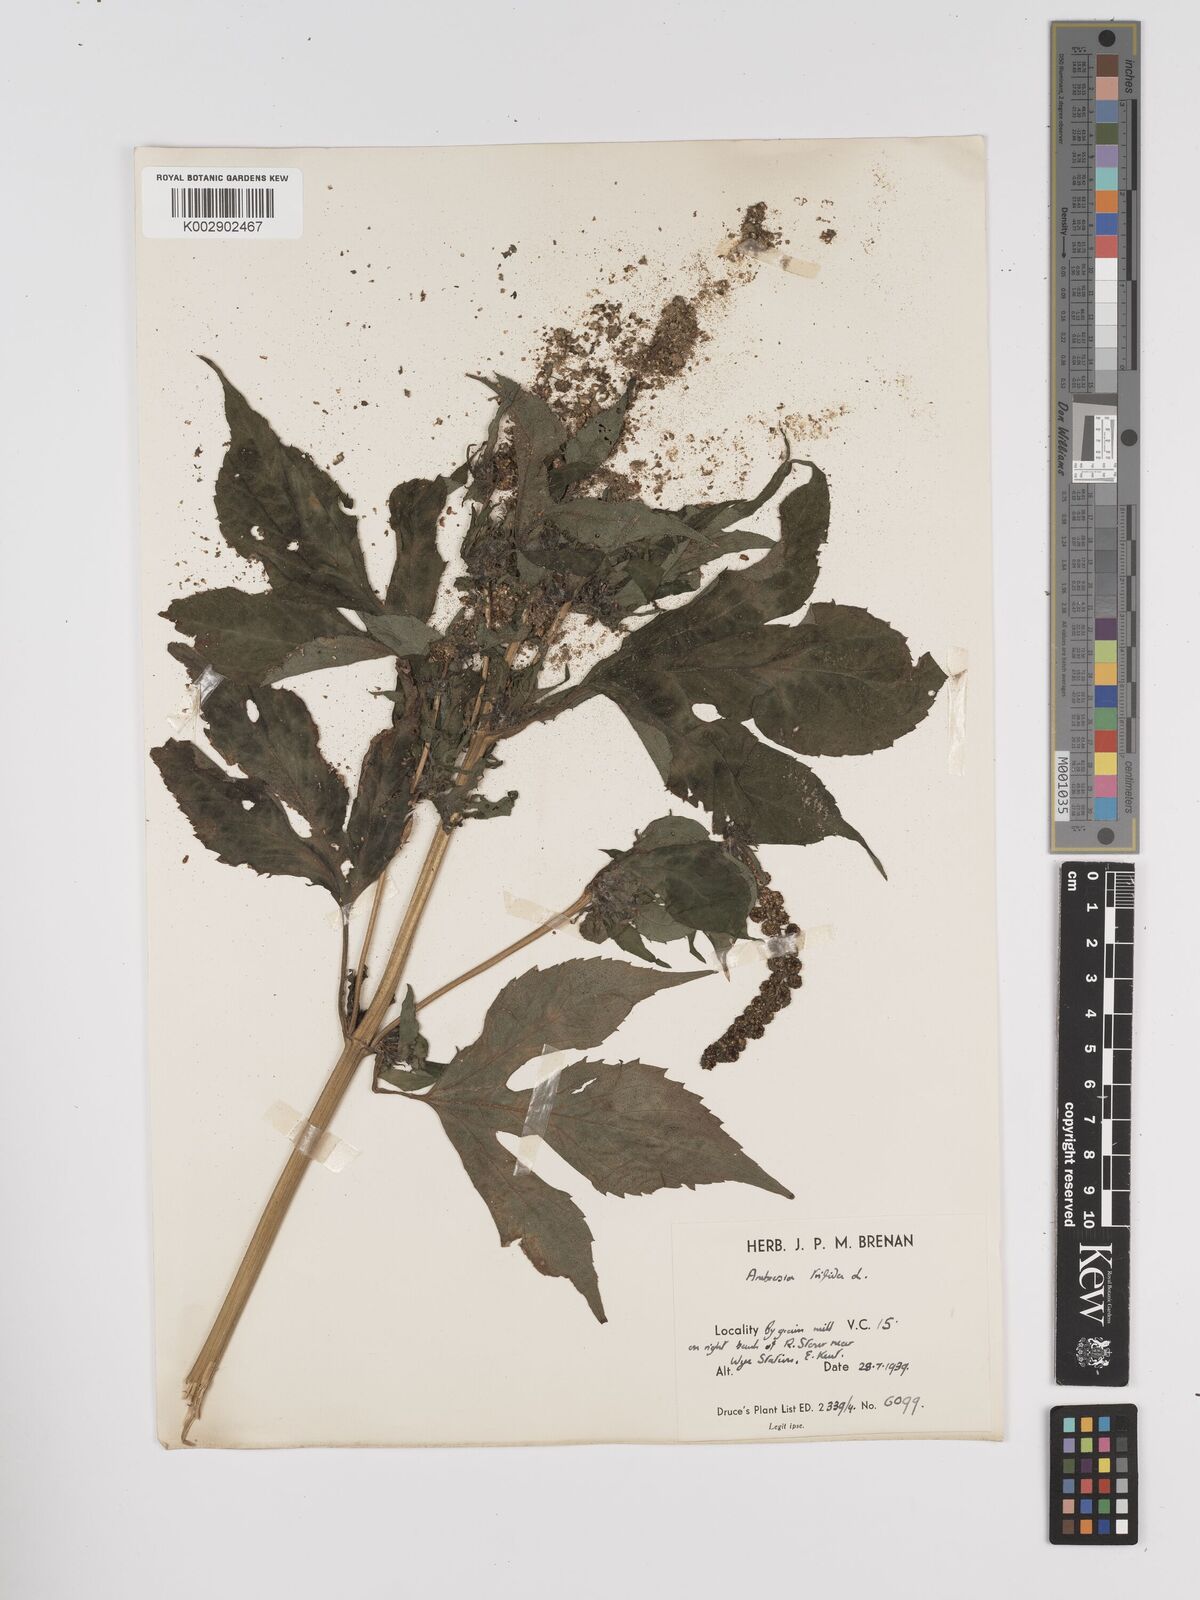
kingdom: Plantae
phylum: Tracheophyta
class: Magnoliopsida
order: Asterales
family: Asteraceae
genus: Ambrosia
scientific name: Ambrosia trifida
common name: Giant ragweed
